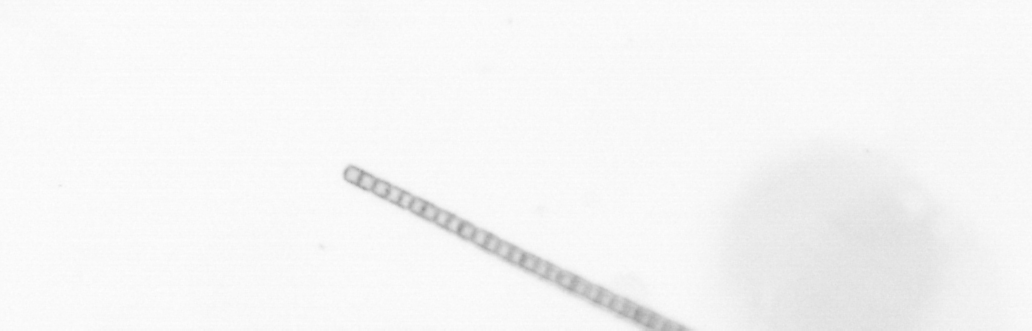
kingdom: Chromista
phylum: Ochrophyta
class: Bacillariophyceae
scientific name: Bacillariophyceae
